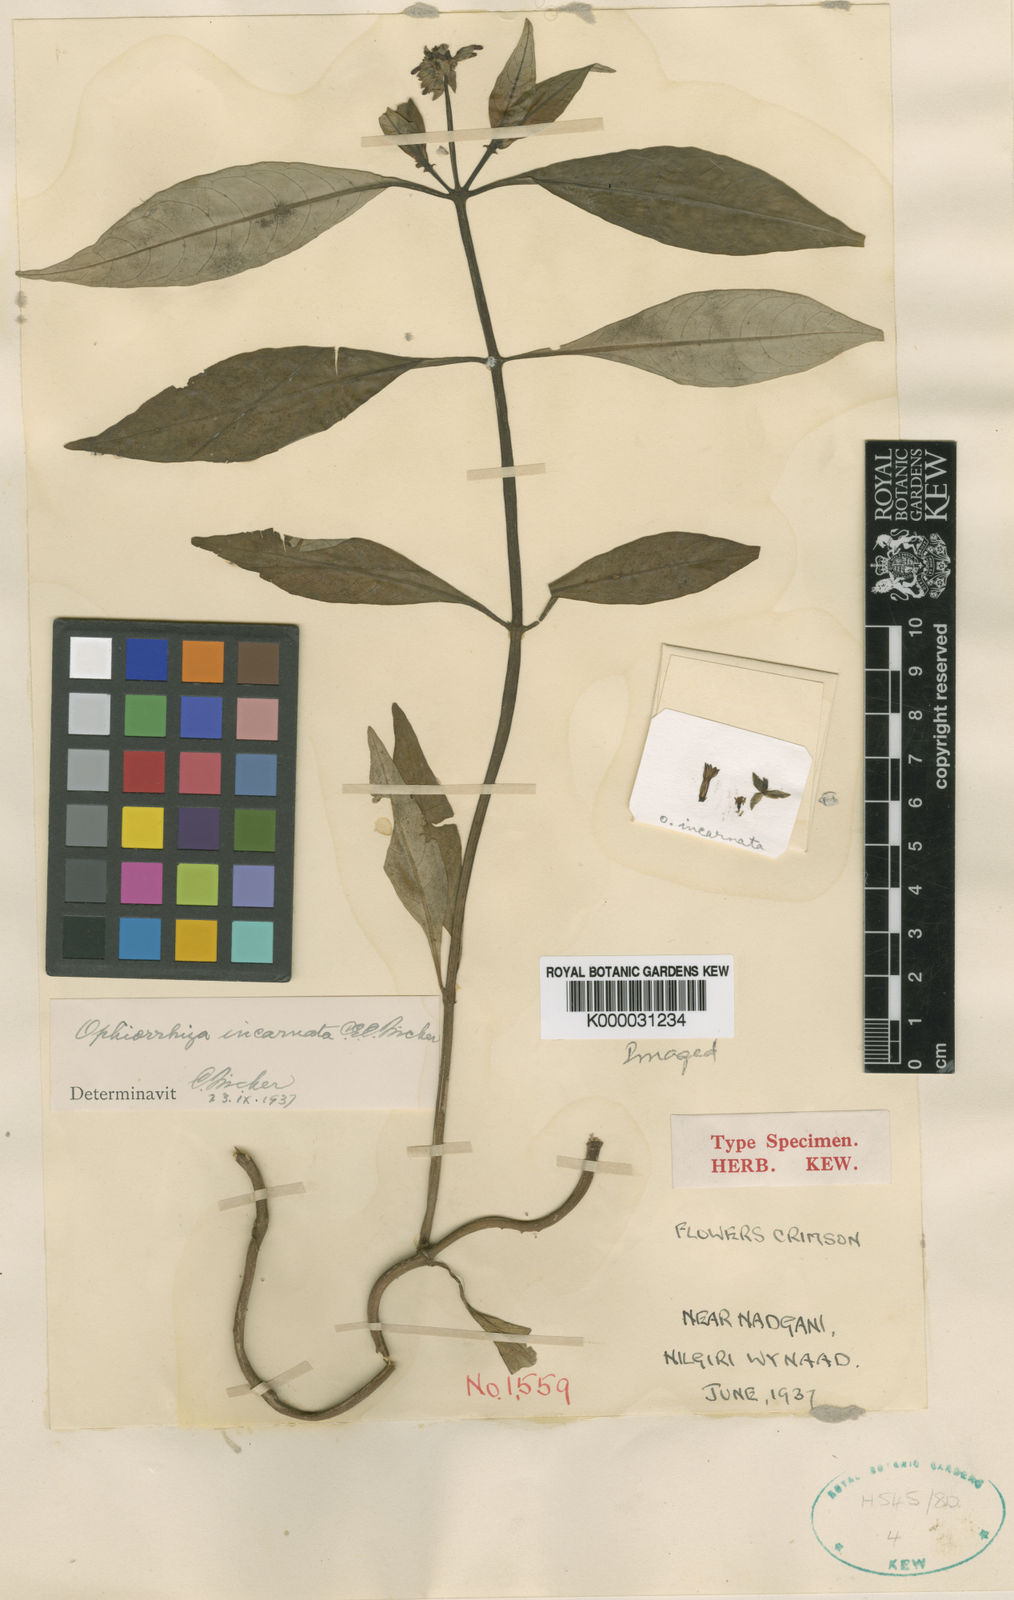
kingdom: Plantae
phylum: Tracheophyta
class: Magnoliopsida
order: Gentianales
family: Rubiaceae
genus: Ophiorrhiza
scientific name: Ophiorrhiza incarnata
